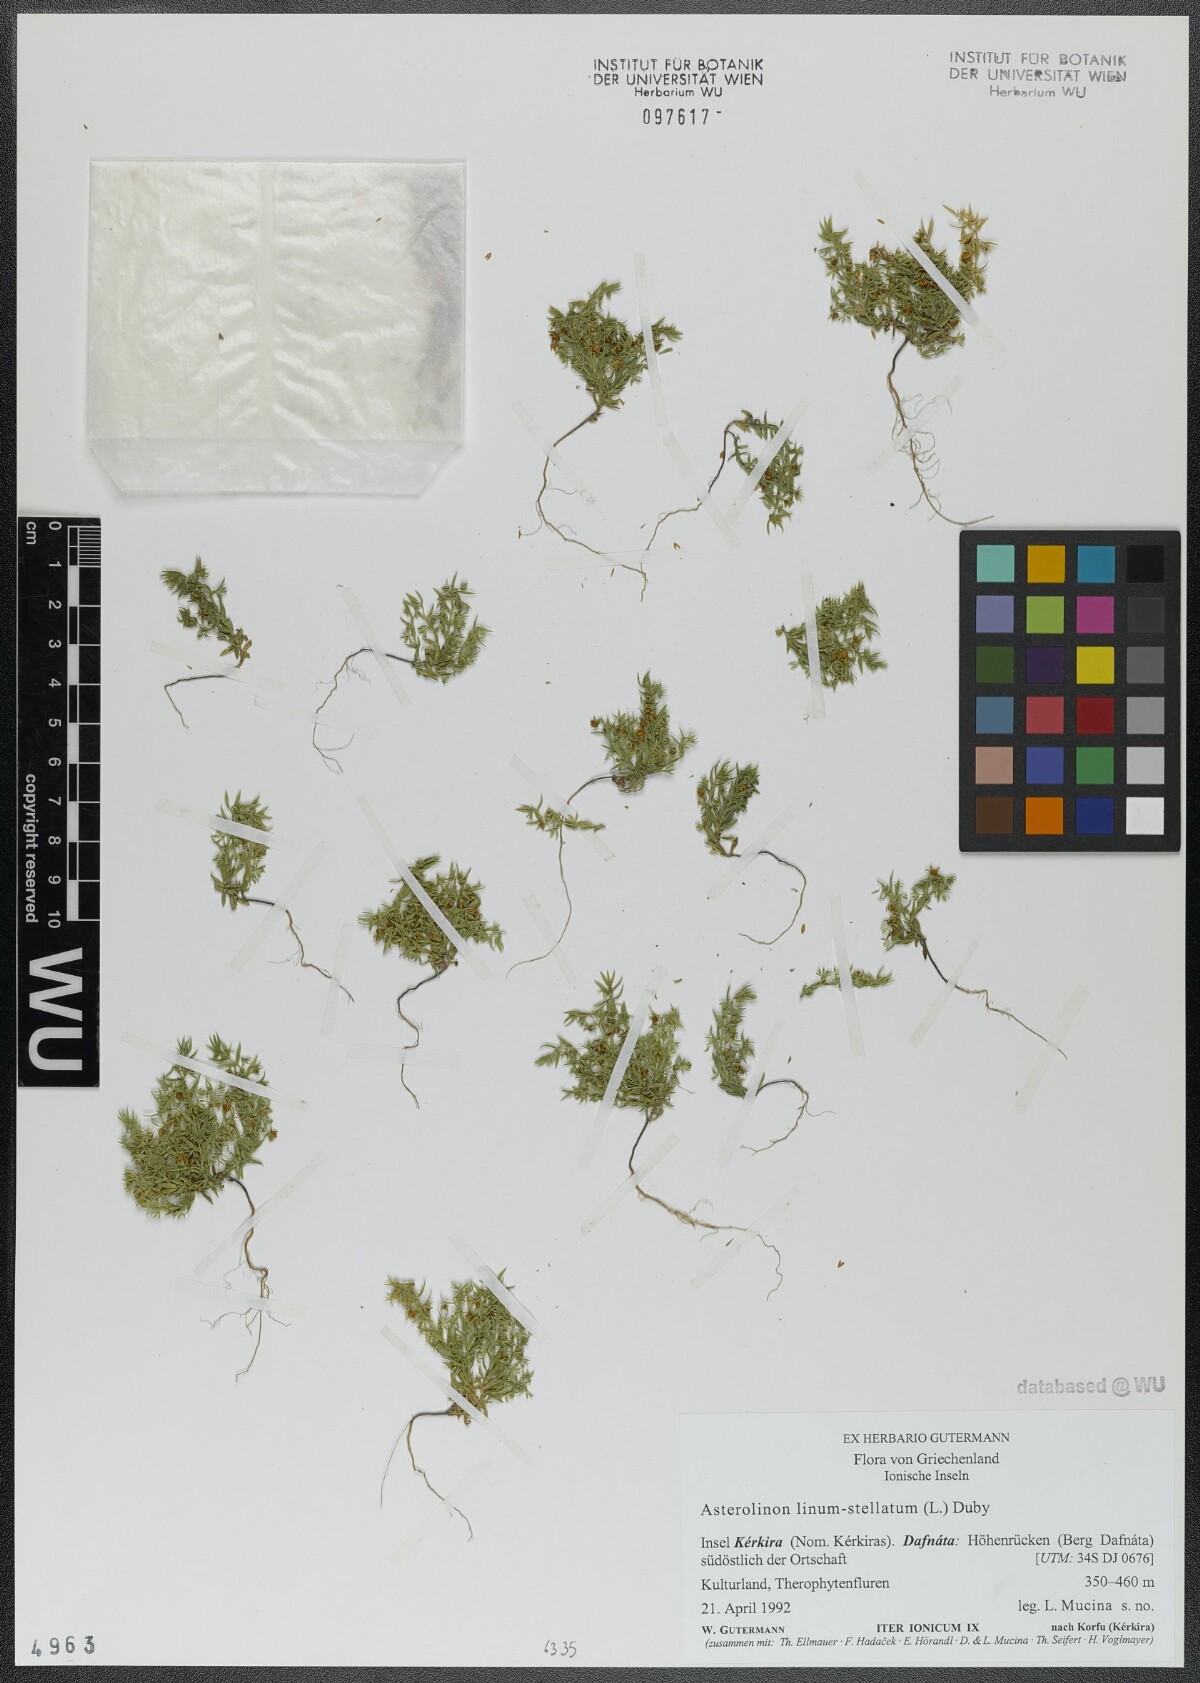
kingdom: Plantae
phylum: Tracheophyta
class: Magnoliopsida
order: Ericales
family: Primulaceae
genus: Lysimachia
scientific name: Lysimachia linum-stellatum
